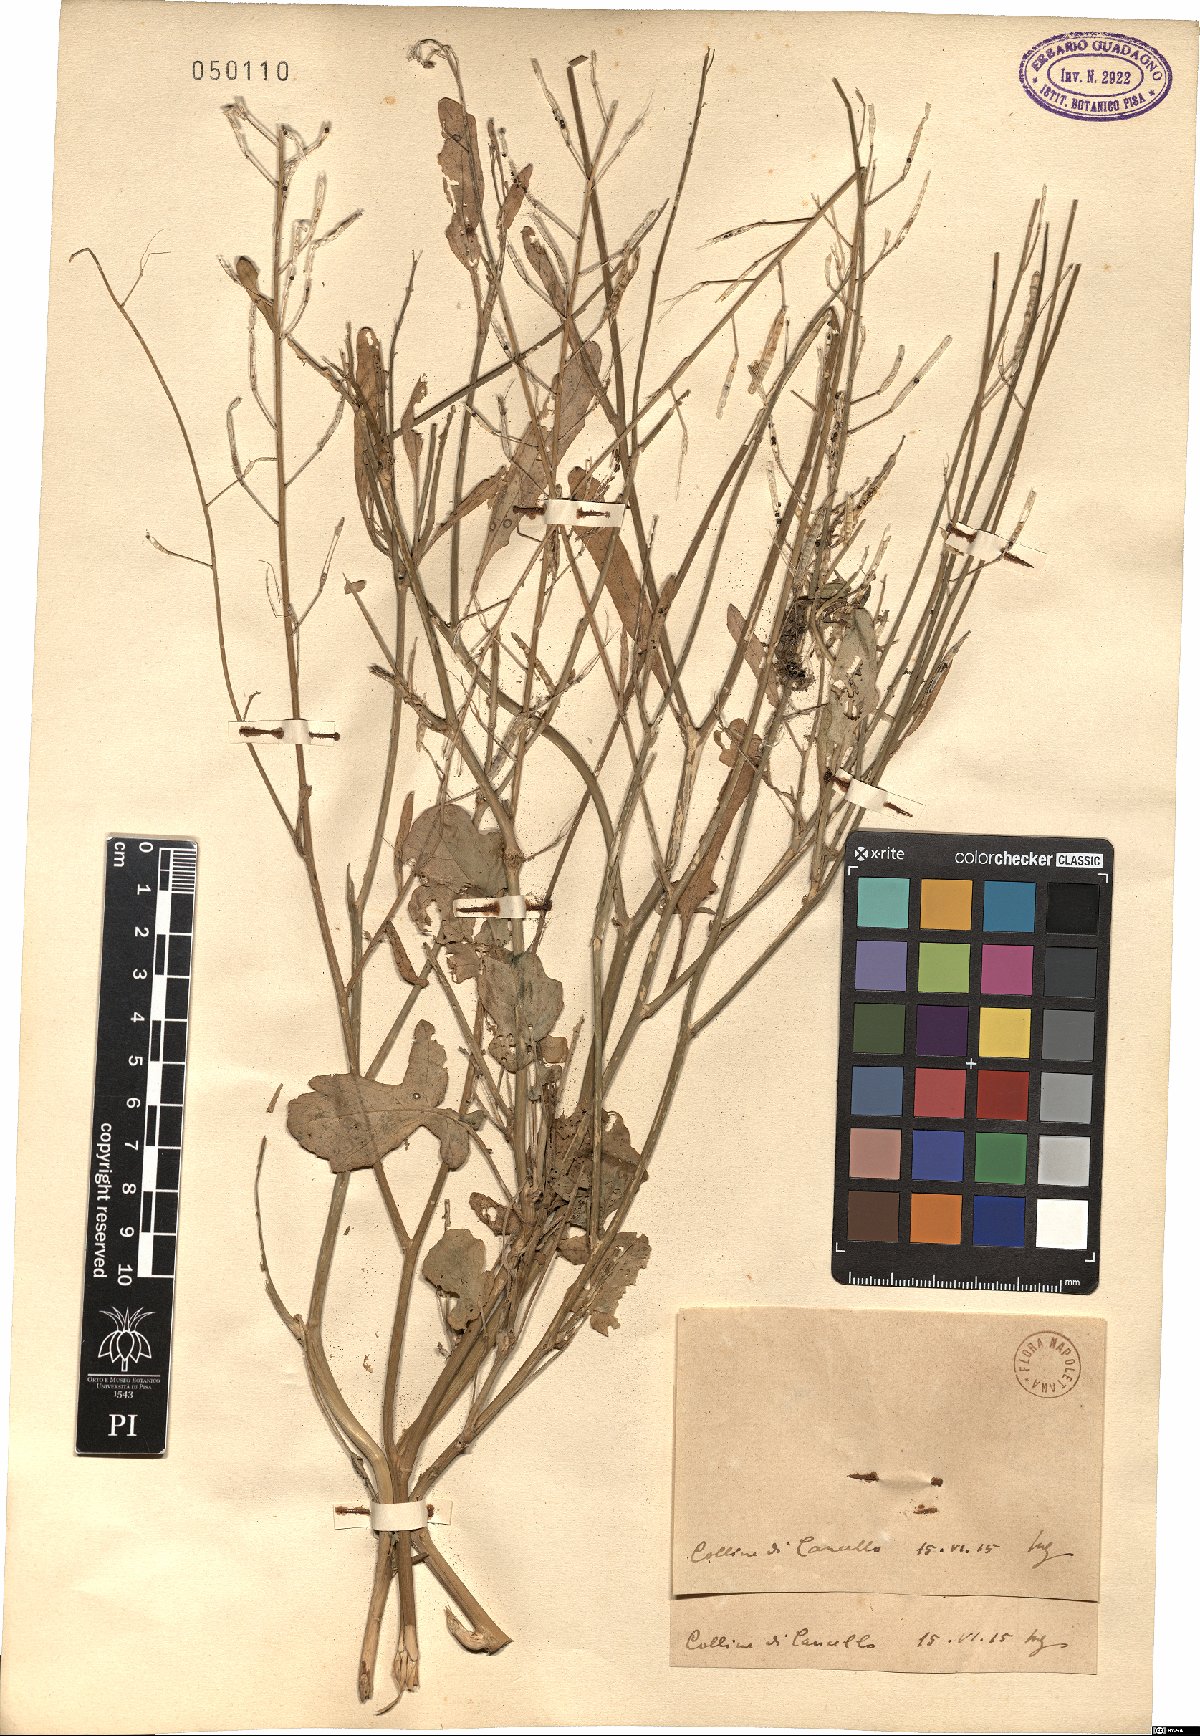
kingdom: Plantae
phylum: Tracheophyta
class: Magnoliopsida
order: Brassicales
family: Brassicaceae
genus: Brassica
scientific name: Brassica
